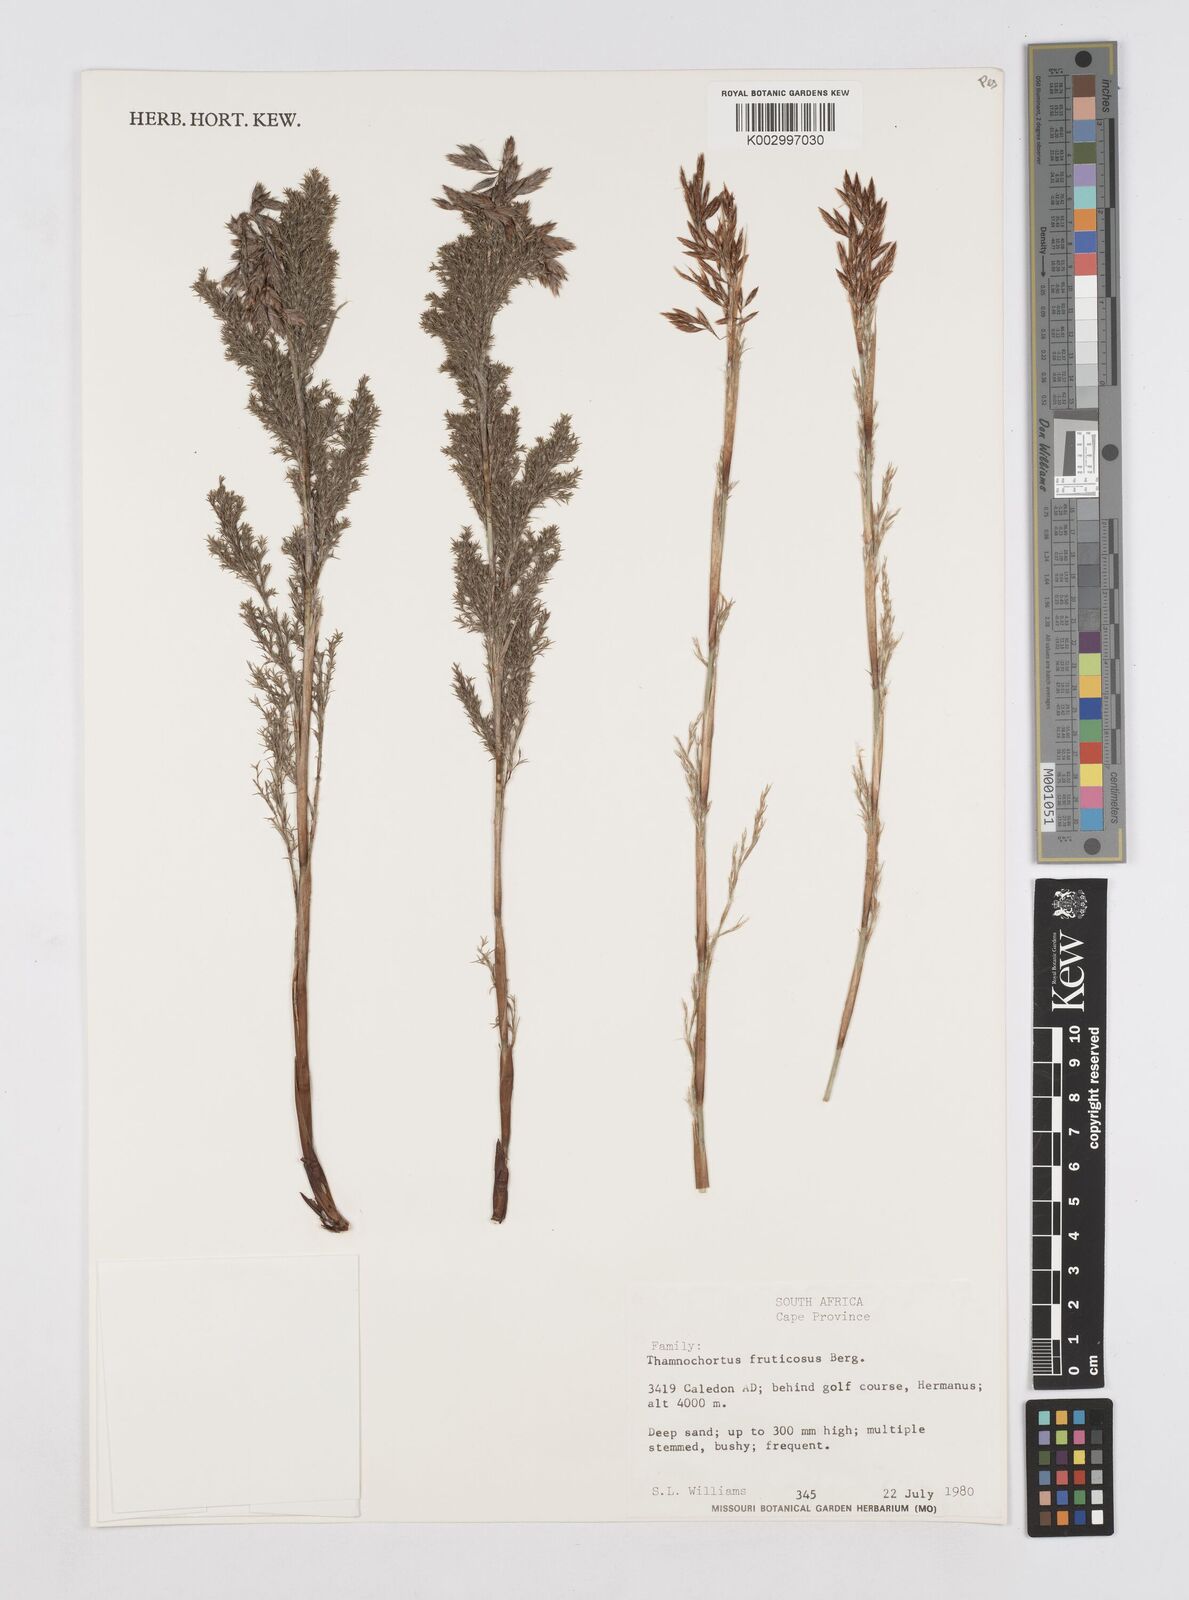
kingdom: Plantae
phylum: Tracheophyta
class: Liliopsida
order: Poales
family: Restionaceae
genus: Thamnochortus
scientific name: Thamnochortus fruticosus
